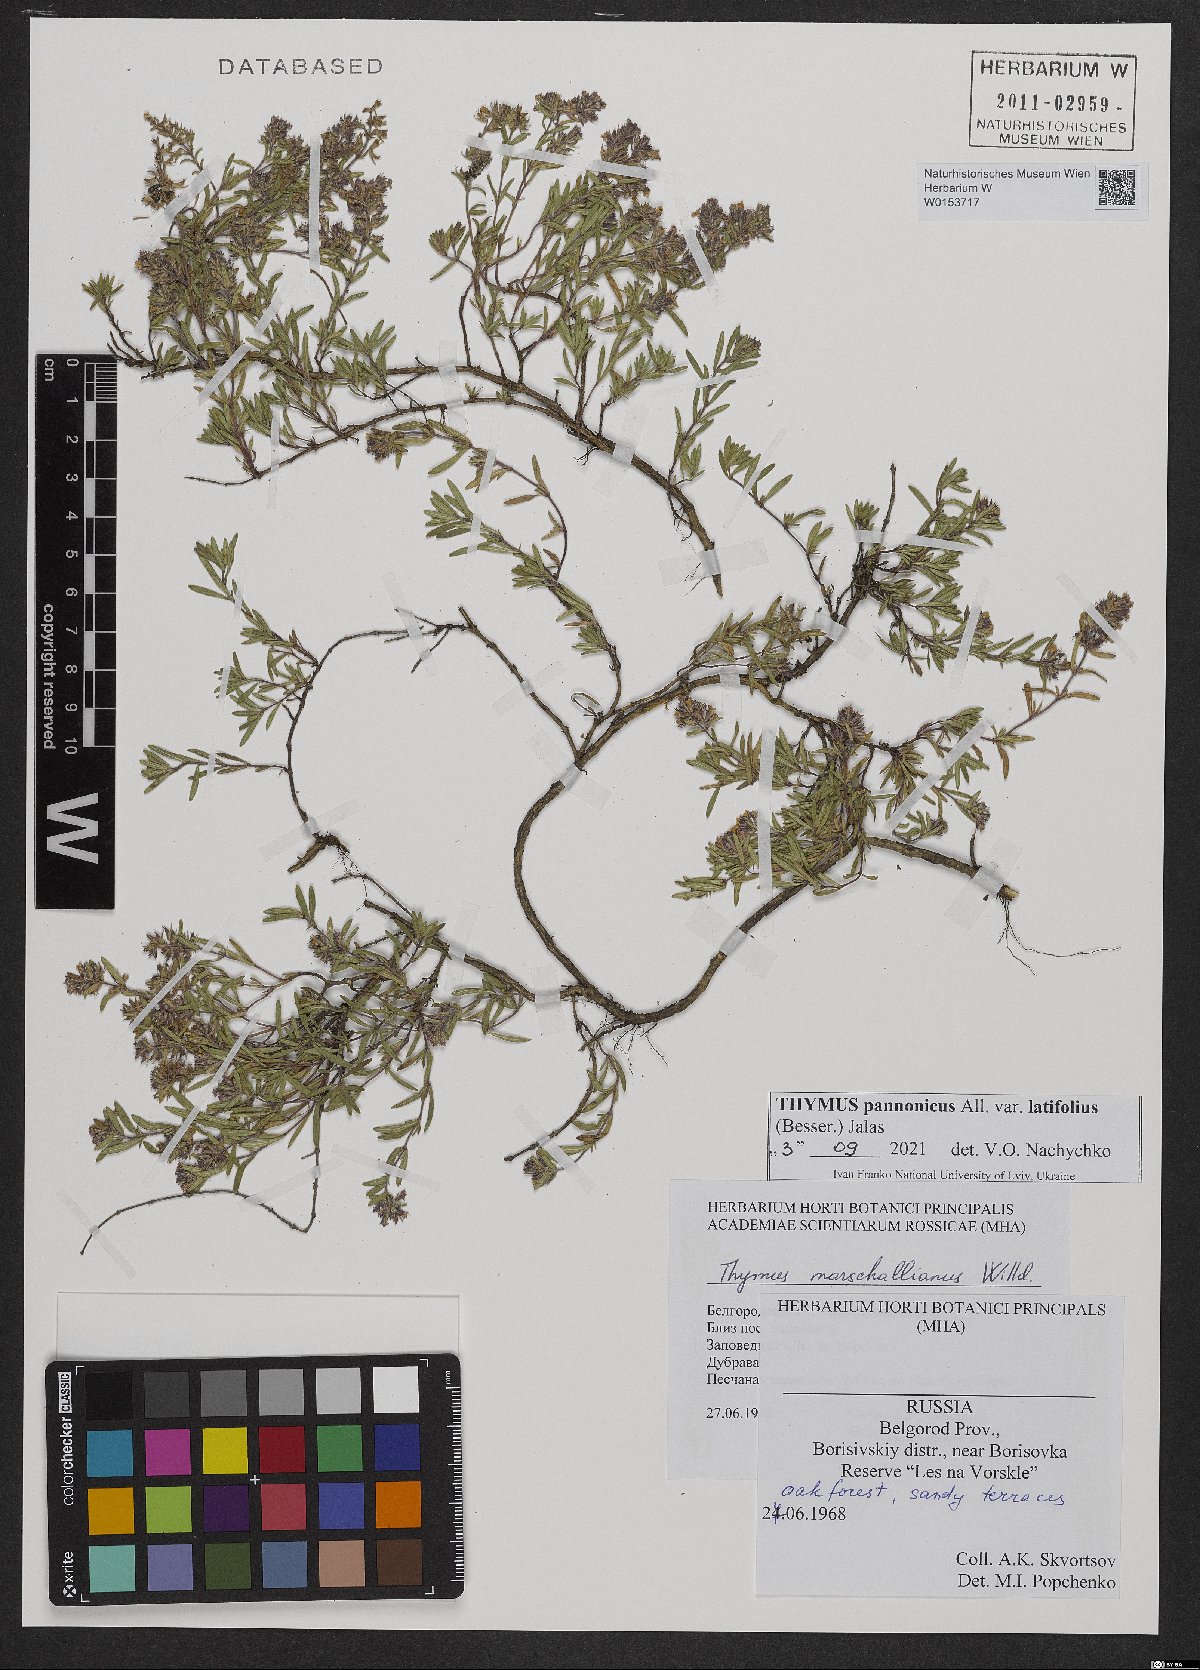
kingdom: Plantae
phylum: Tracheophyta
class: Magnoliopsida
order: Lamiales
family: Lamiaceae
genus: Thymus
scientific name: Thymus pannonicus
